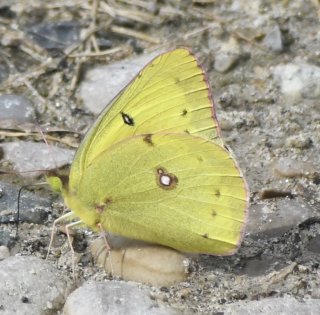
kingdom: Animalia
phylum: Arthropoda
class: Insecta
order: Lepidoptera
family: Pieridae
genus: Colias
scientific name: Colias philodice
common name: Clouded Sulphur
